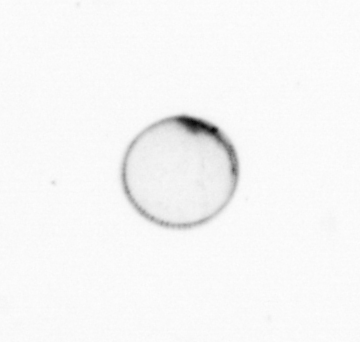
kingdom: Chromista
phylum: Myzozoa
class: Dinophyceae
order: Noctilucales
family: Noctilucaceae
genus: Noctiluca
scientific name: Noctiluca scintillans
